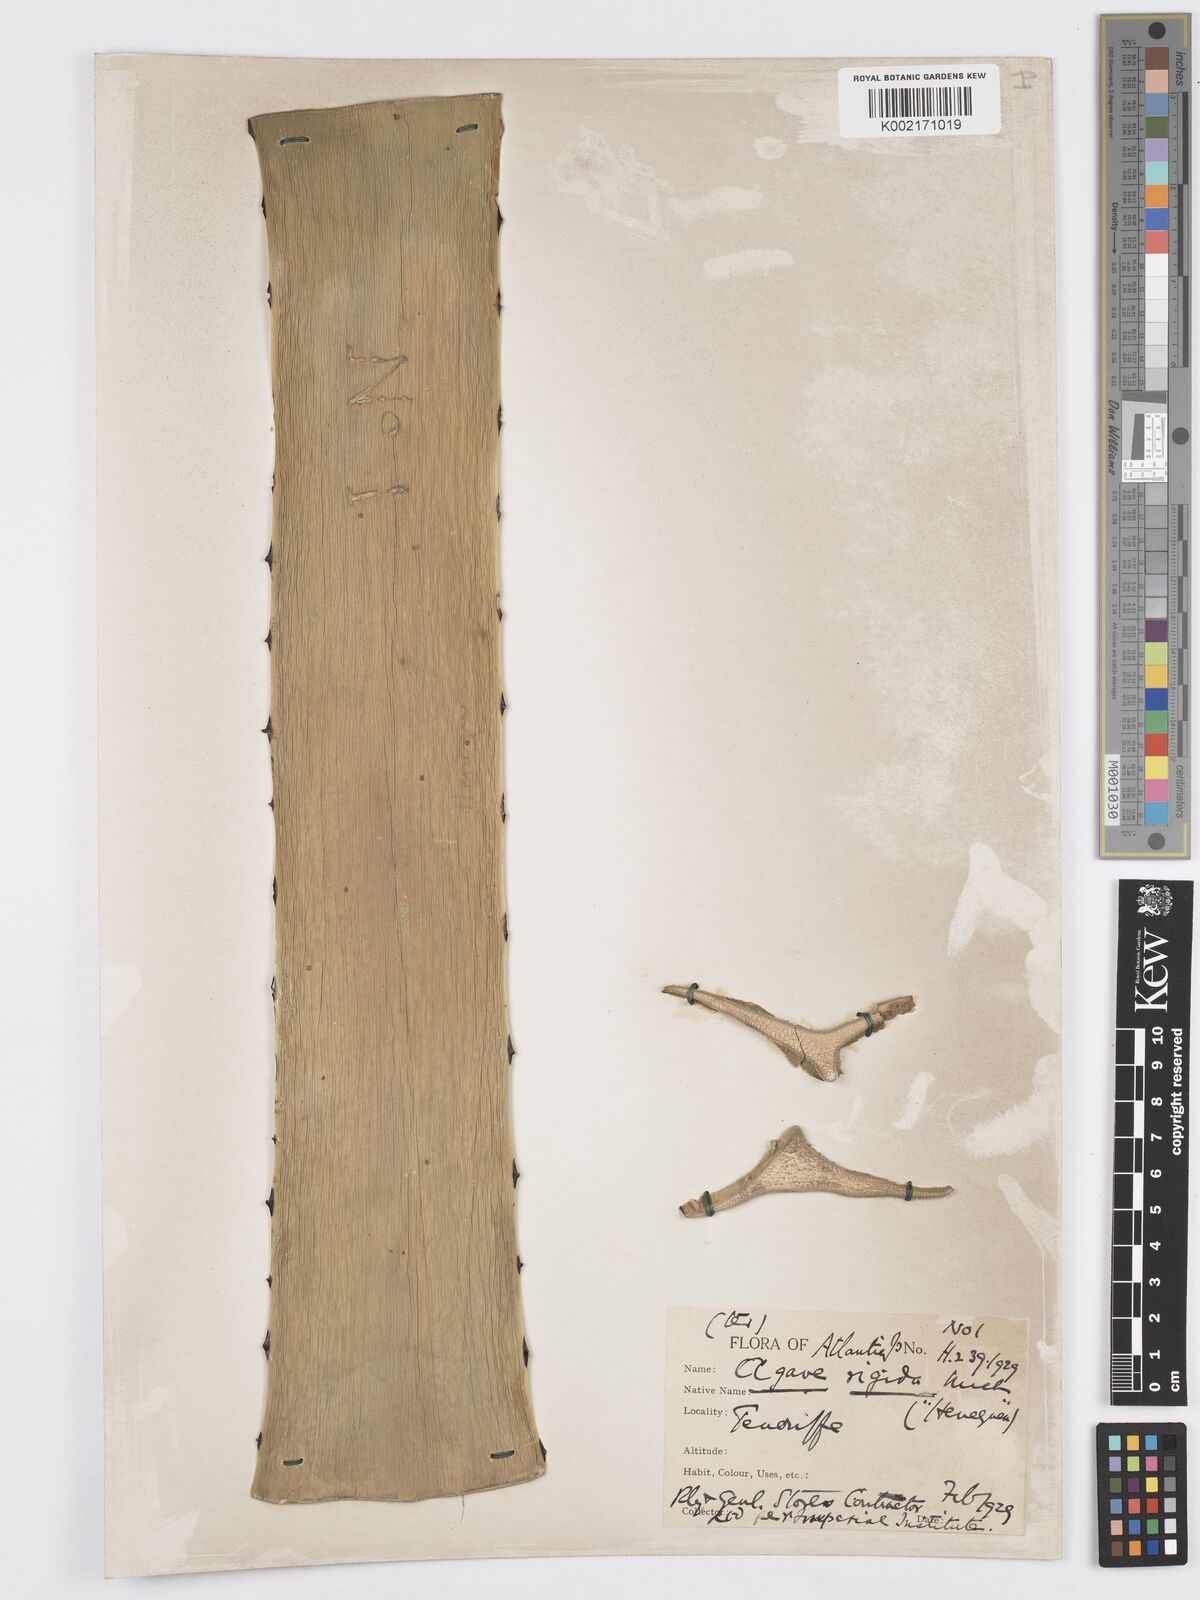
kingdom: Plantae
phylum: Tracheophyta
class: Liliopsida
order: Asparagales
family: Asparagaceae
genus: Agave
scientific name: Agave angustifolia
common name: Mescal agave
